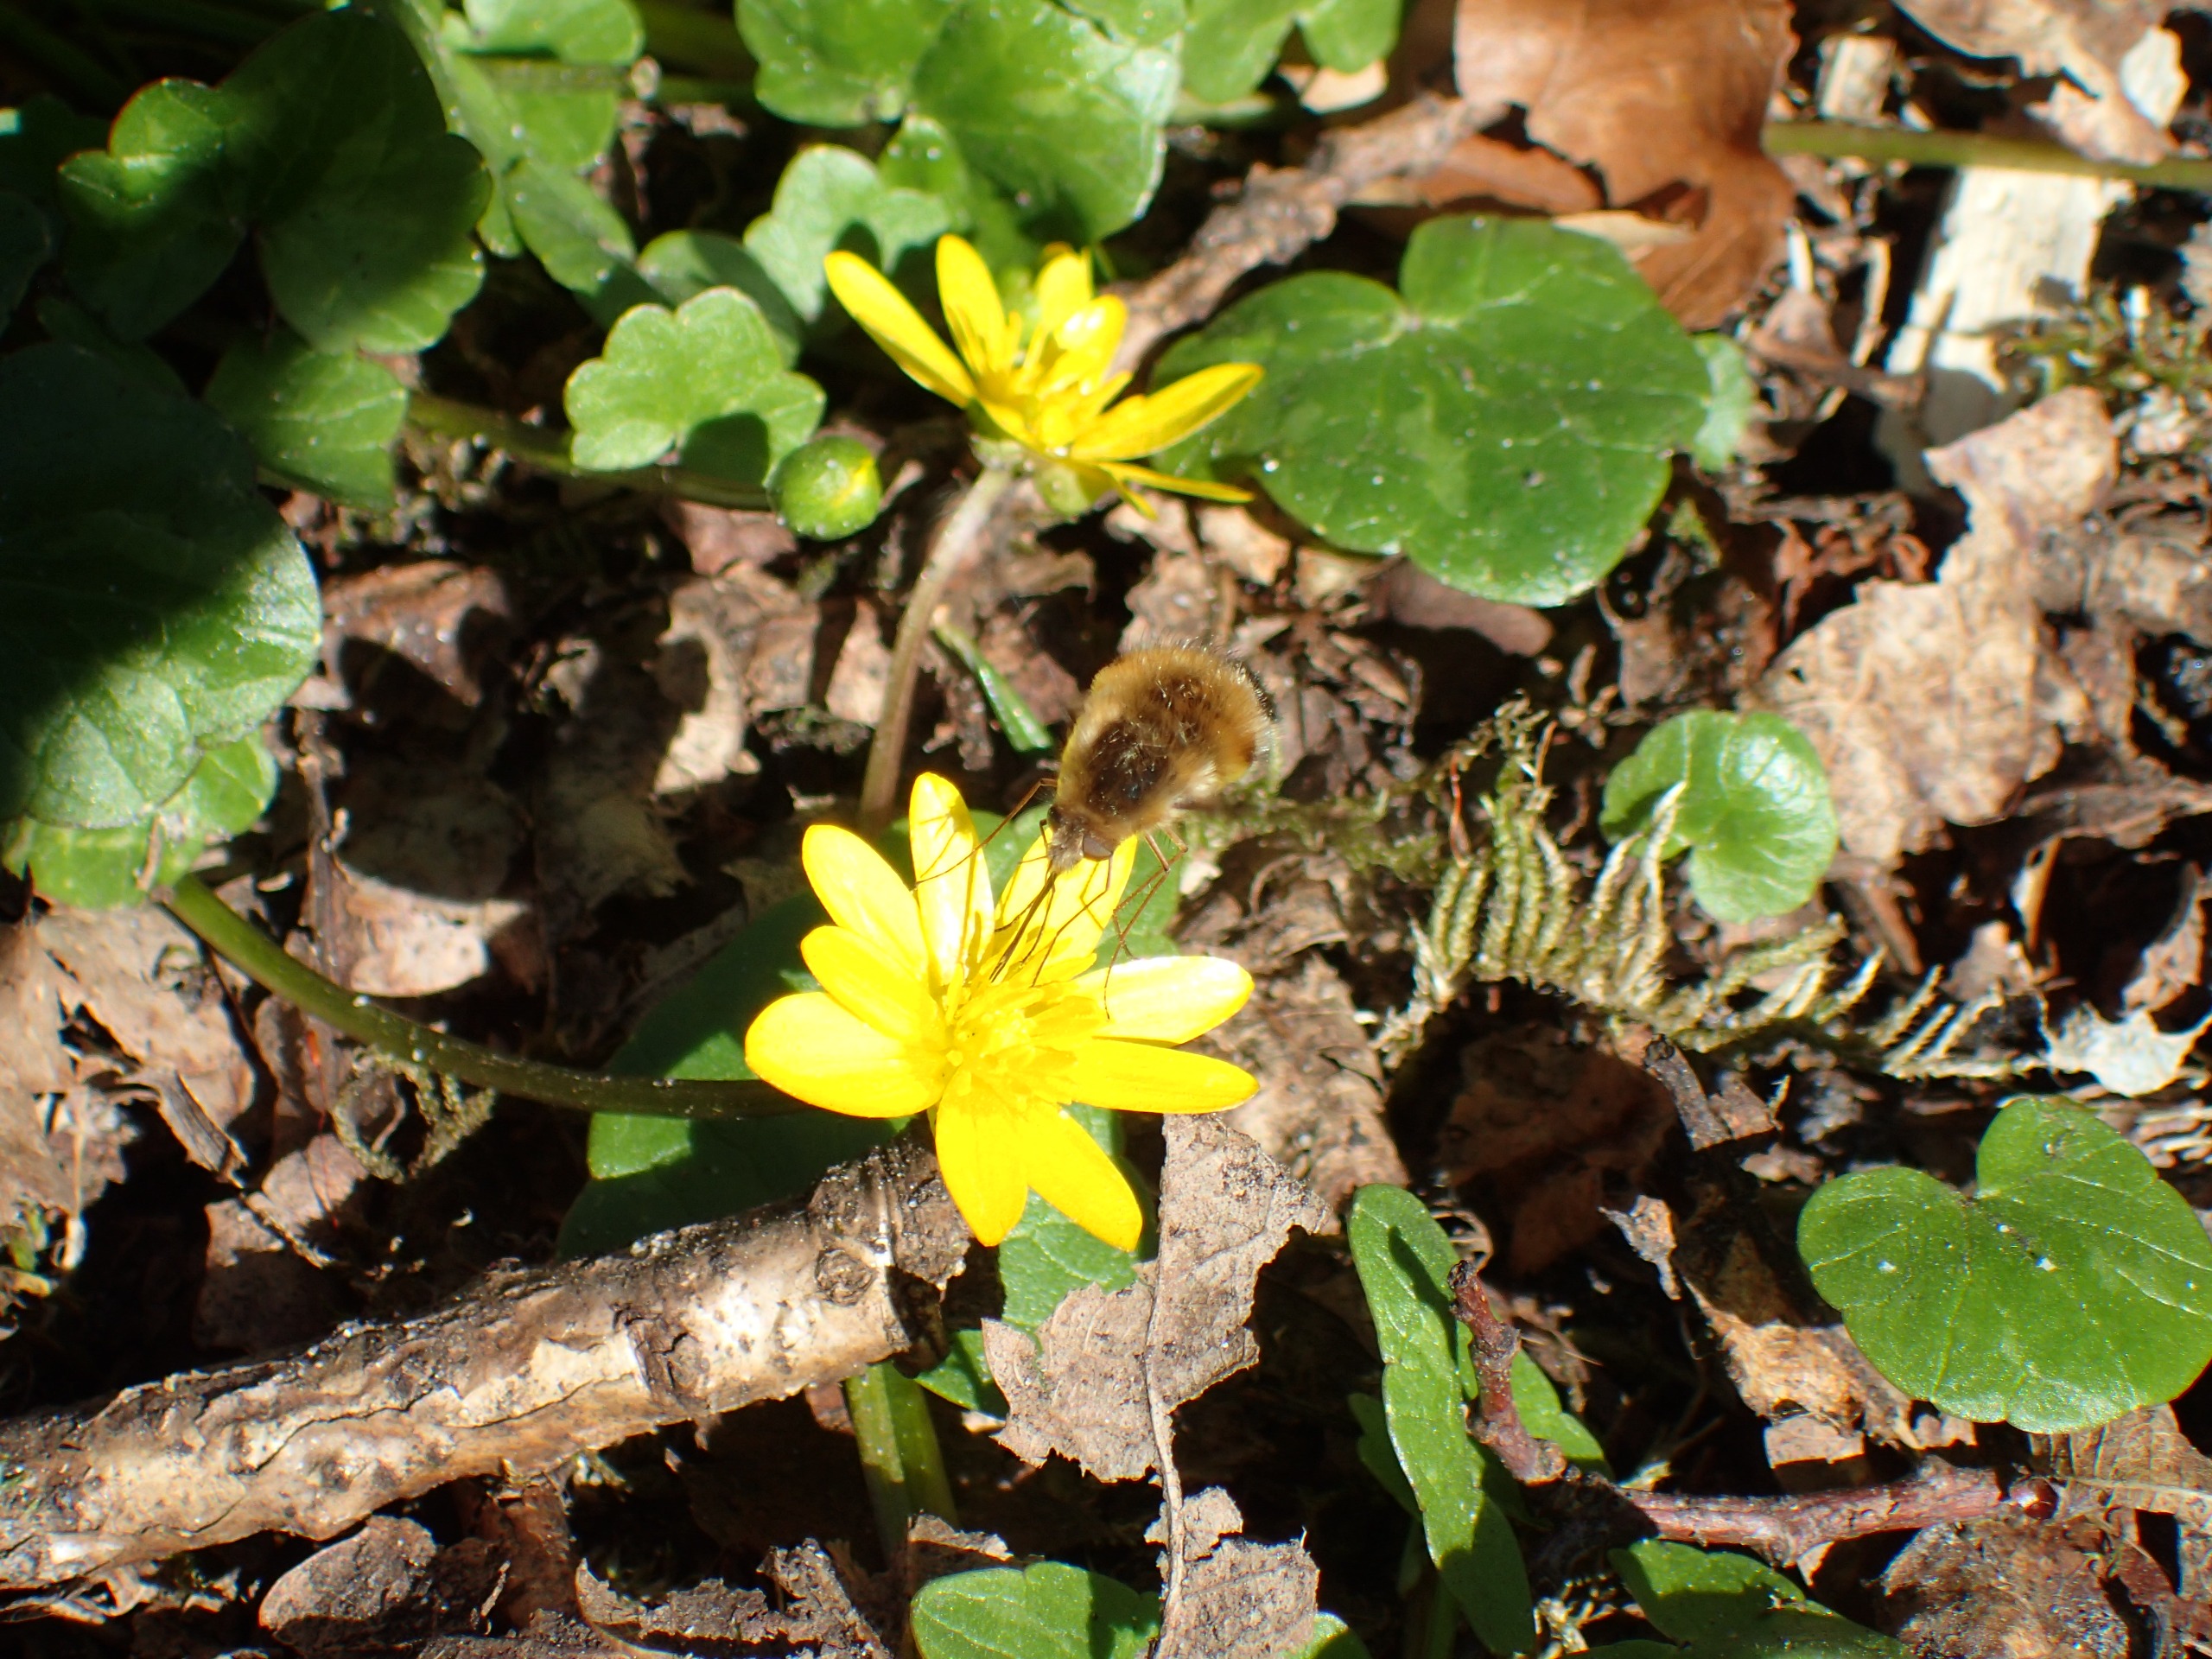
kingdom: Animalia
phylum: Arthropoda
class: Insecta
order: Diptera
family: Bombyliidae
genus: Bombylius
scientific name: Bombylius major
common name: Stor humleflue
